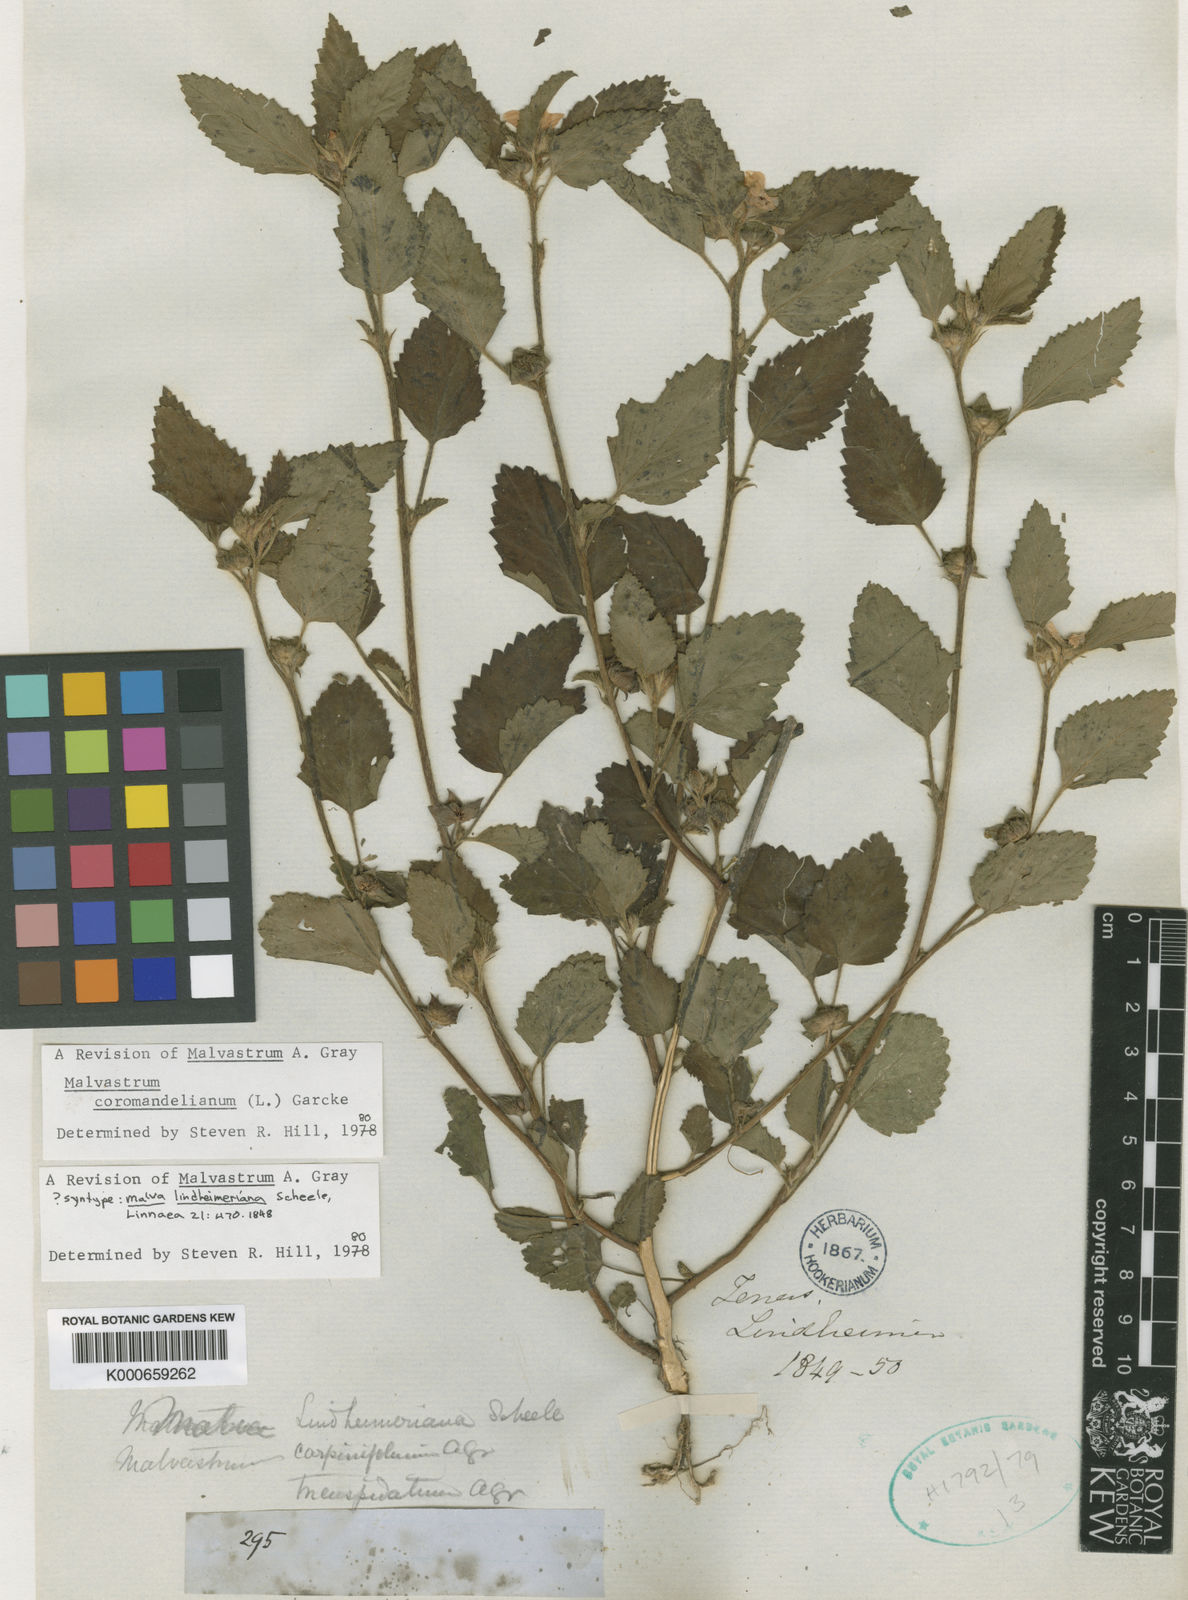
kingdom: Plantae
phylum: Tracheophyta
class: Magnoliopsida
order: Malvales
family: Malvaceae
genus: Malvastrum
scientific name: Malvastrum coromandelianum
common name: Threelobe false mallow
